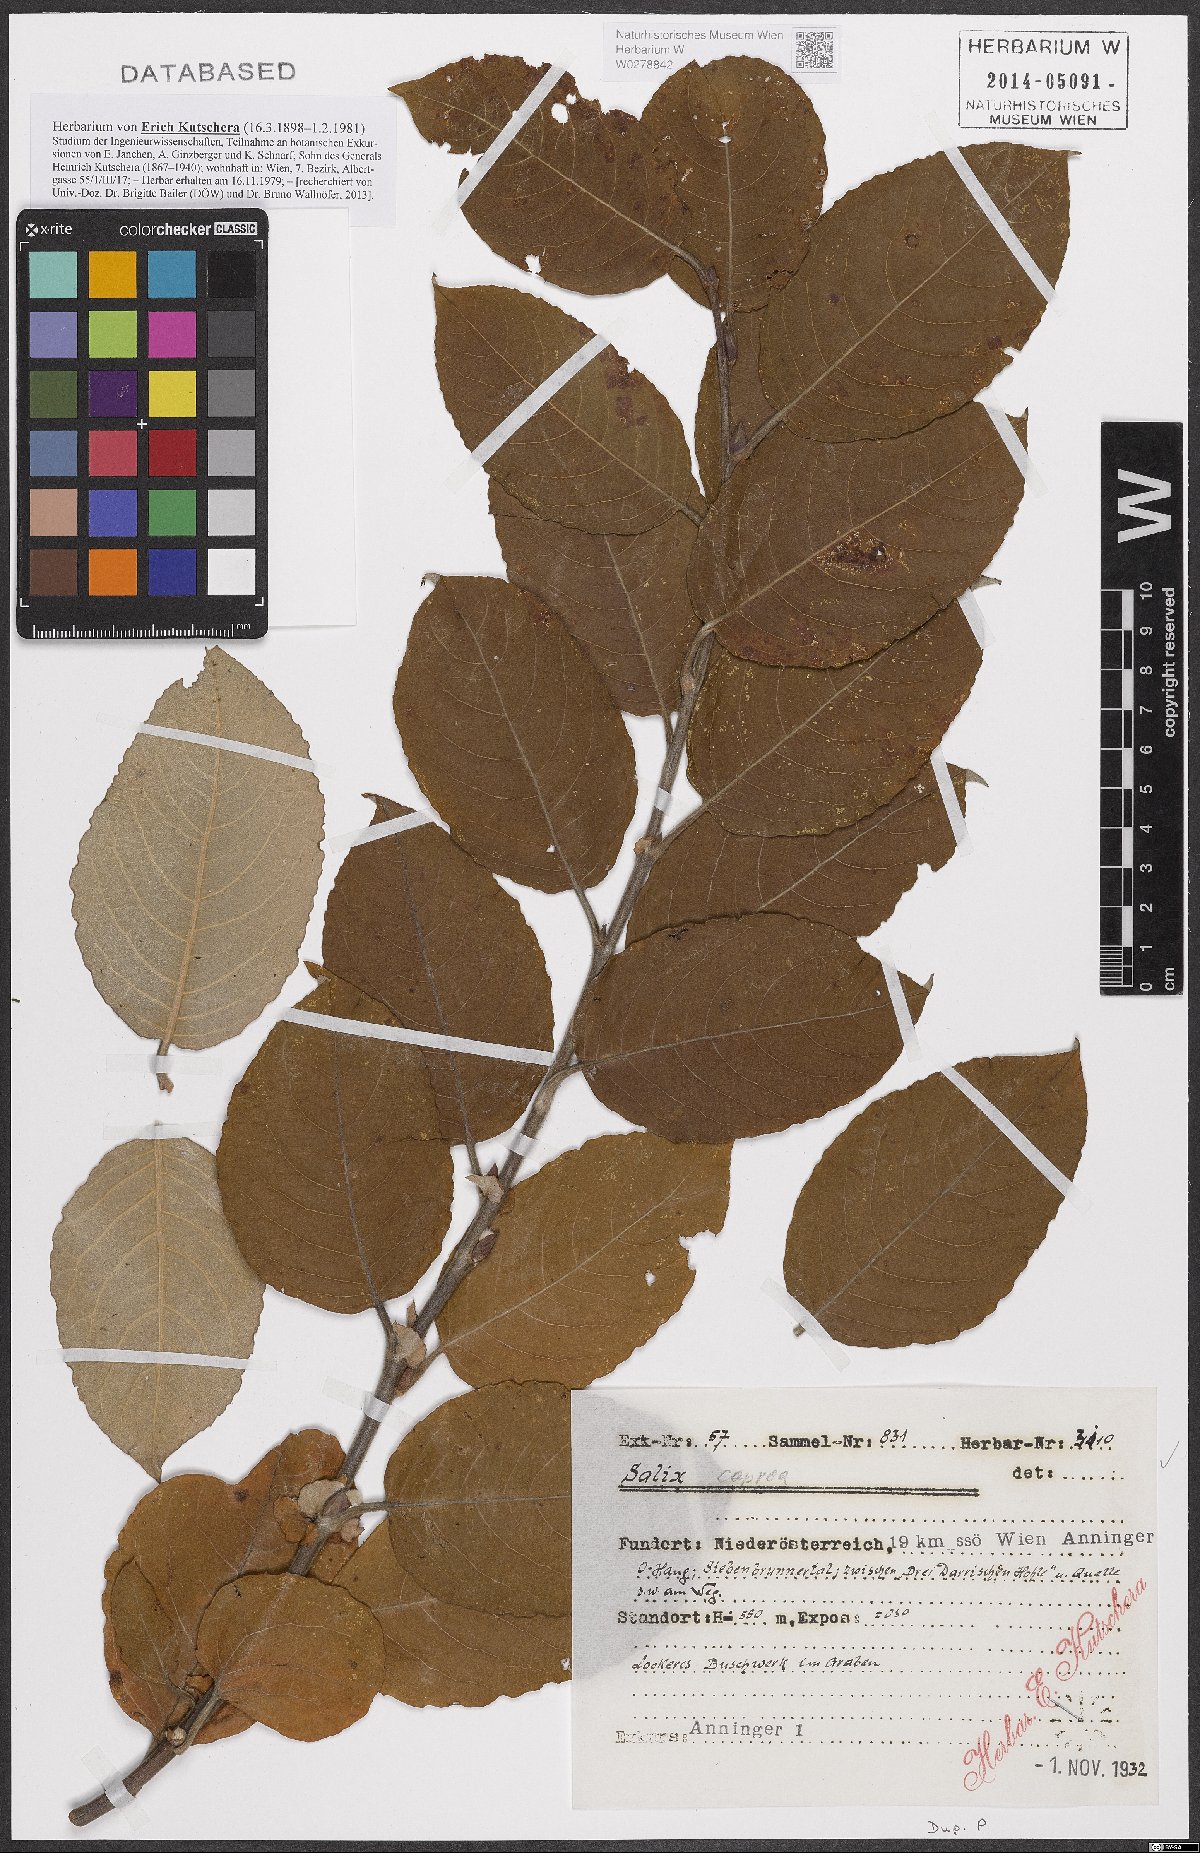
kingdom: Plantae
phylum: Tracheophyta
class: Magnoliopsida
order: Malpighiales
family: Salicaceae
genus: Salix
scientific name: Salix caprea
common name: Goat willow
